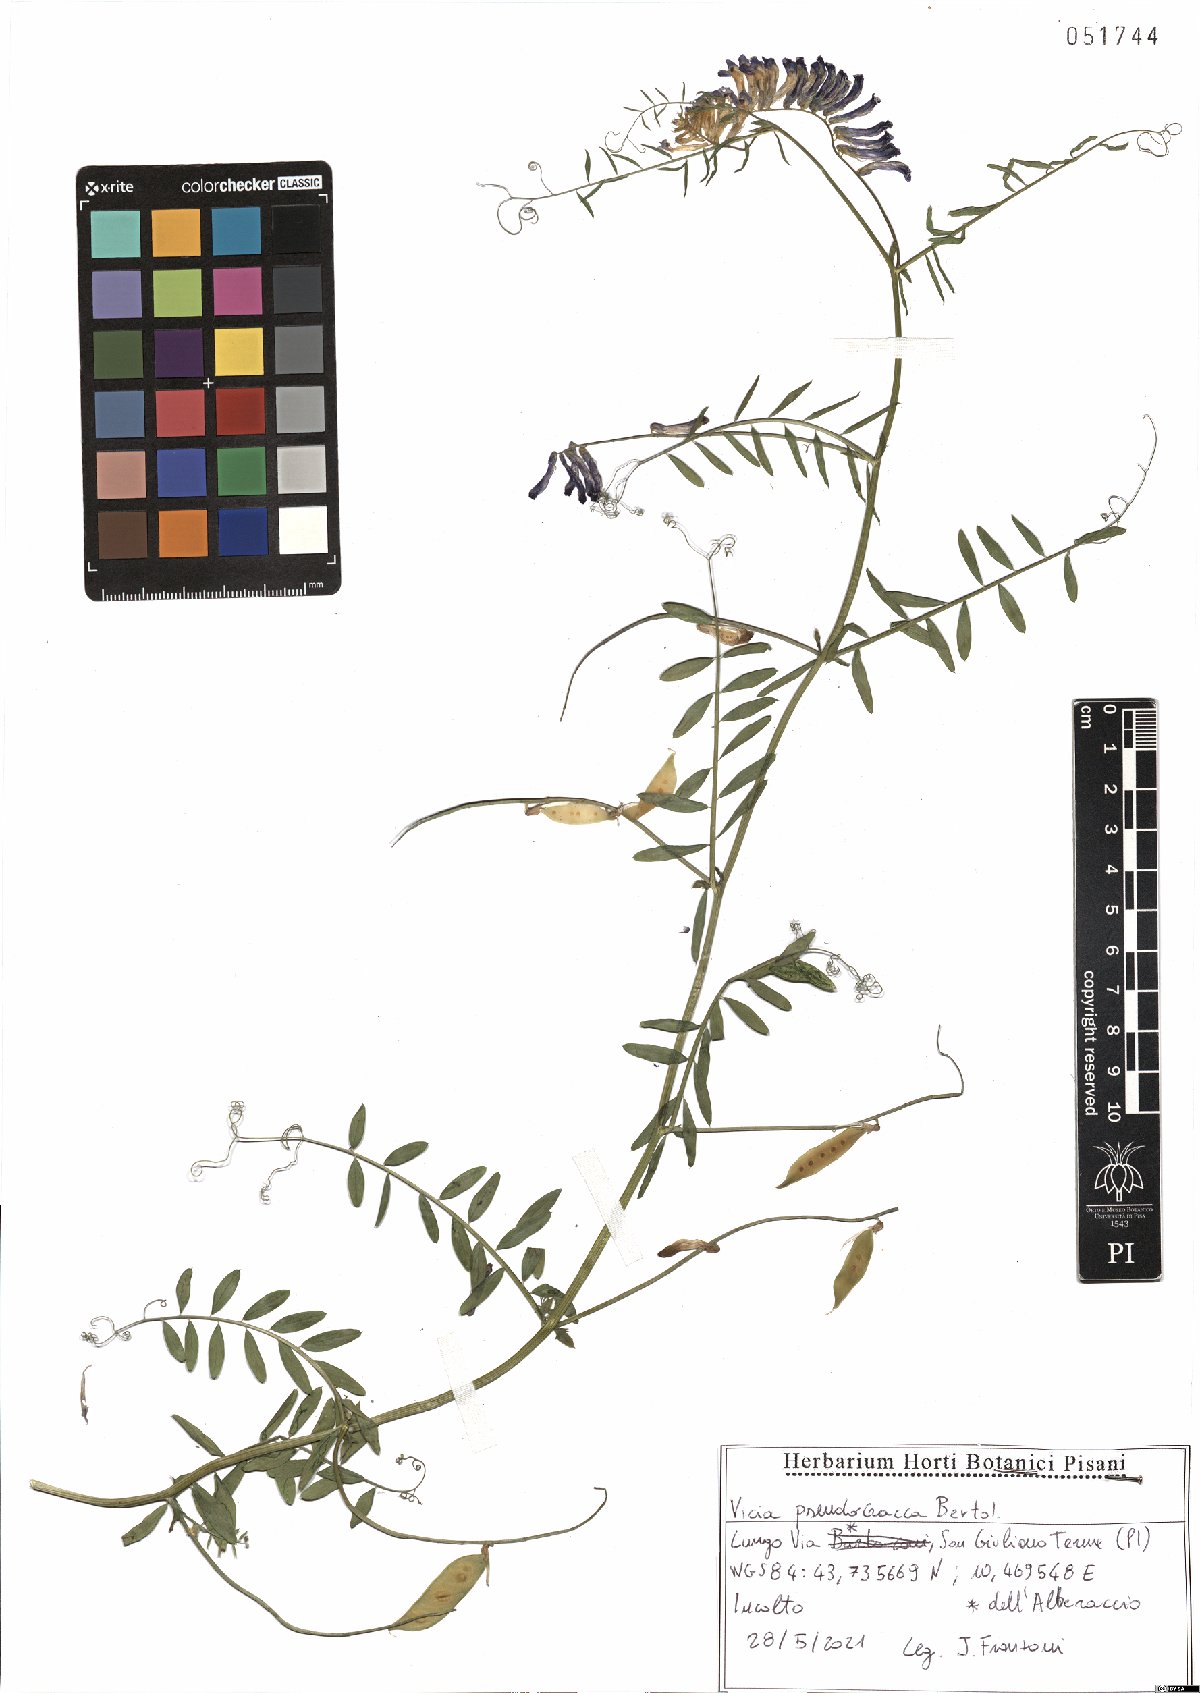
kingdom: Plantae
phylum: Tracheophyta
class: Magnoliopsida
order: Fabales
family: Fabaceae
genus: Vicia
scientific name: Vicia villosa
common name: Fodder vetch
